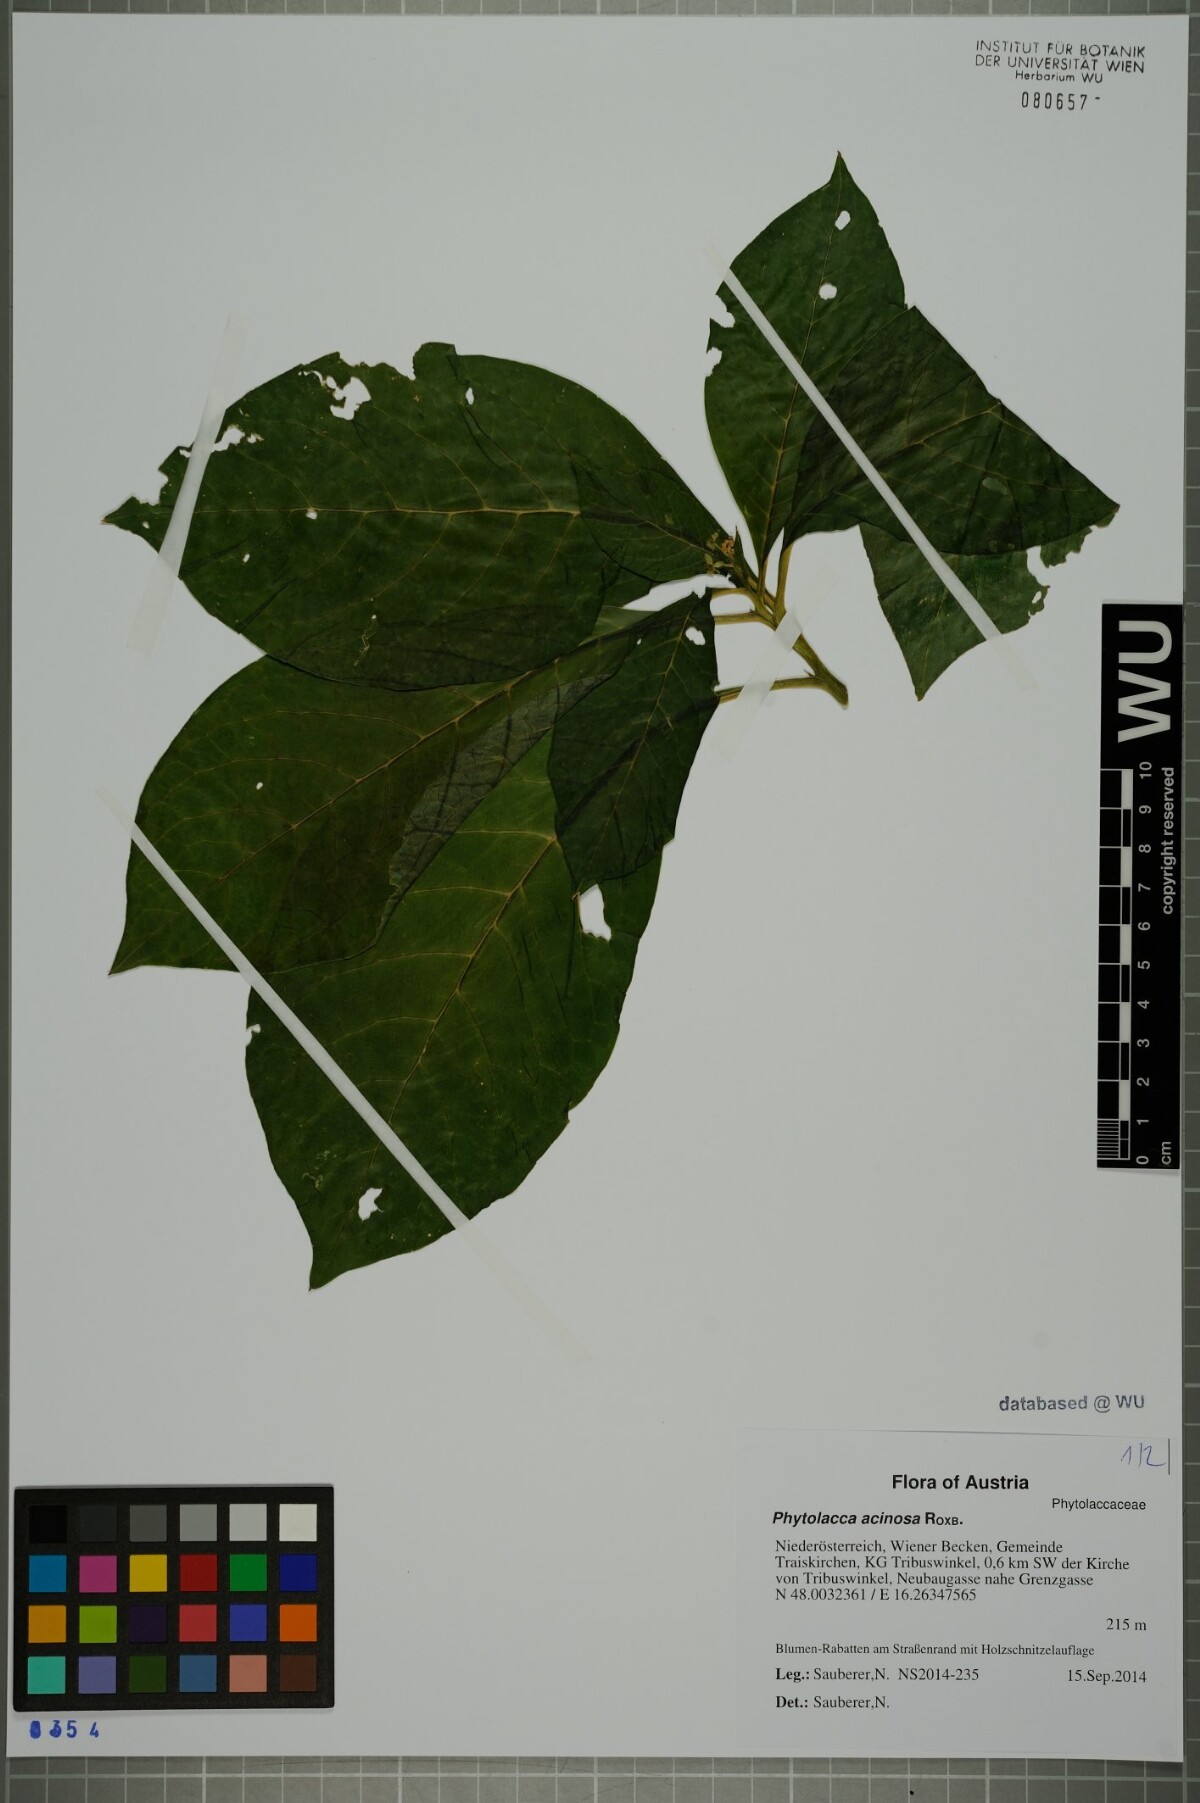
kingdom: Plantae
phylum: Tracheophyta
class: Magnoliopsida
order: Caryophyllales
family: Phytolaccaceae
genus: Phytolacca
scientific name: Phytolacca acinosa
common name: Indian pokeweed
